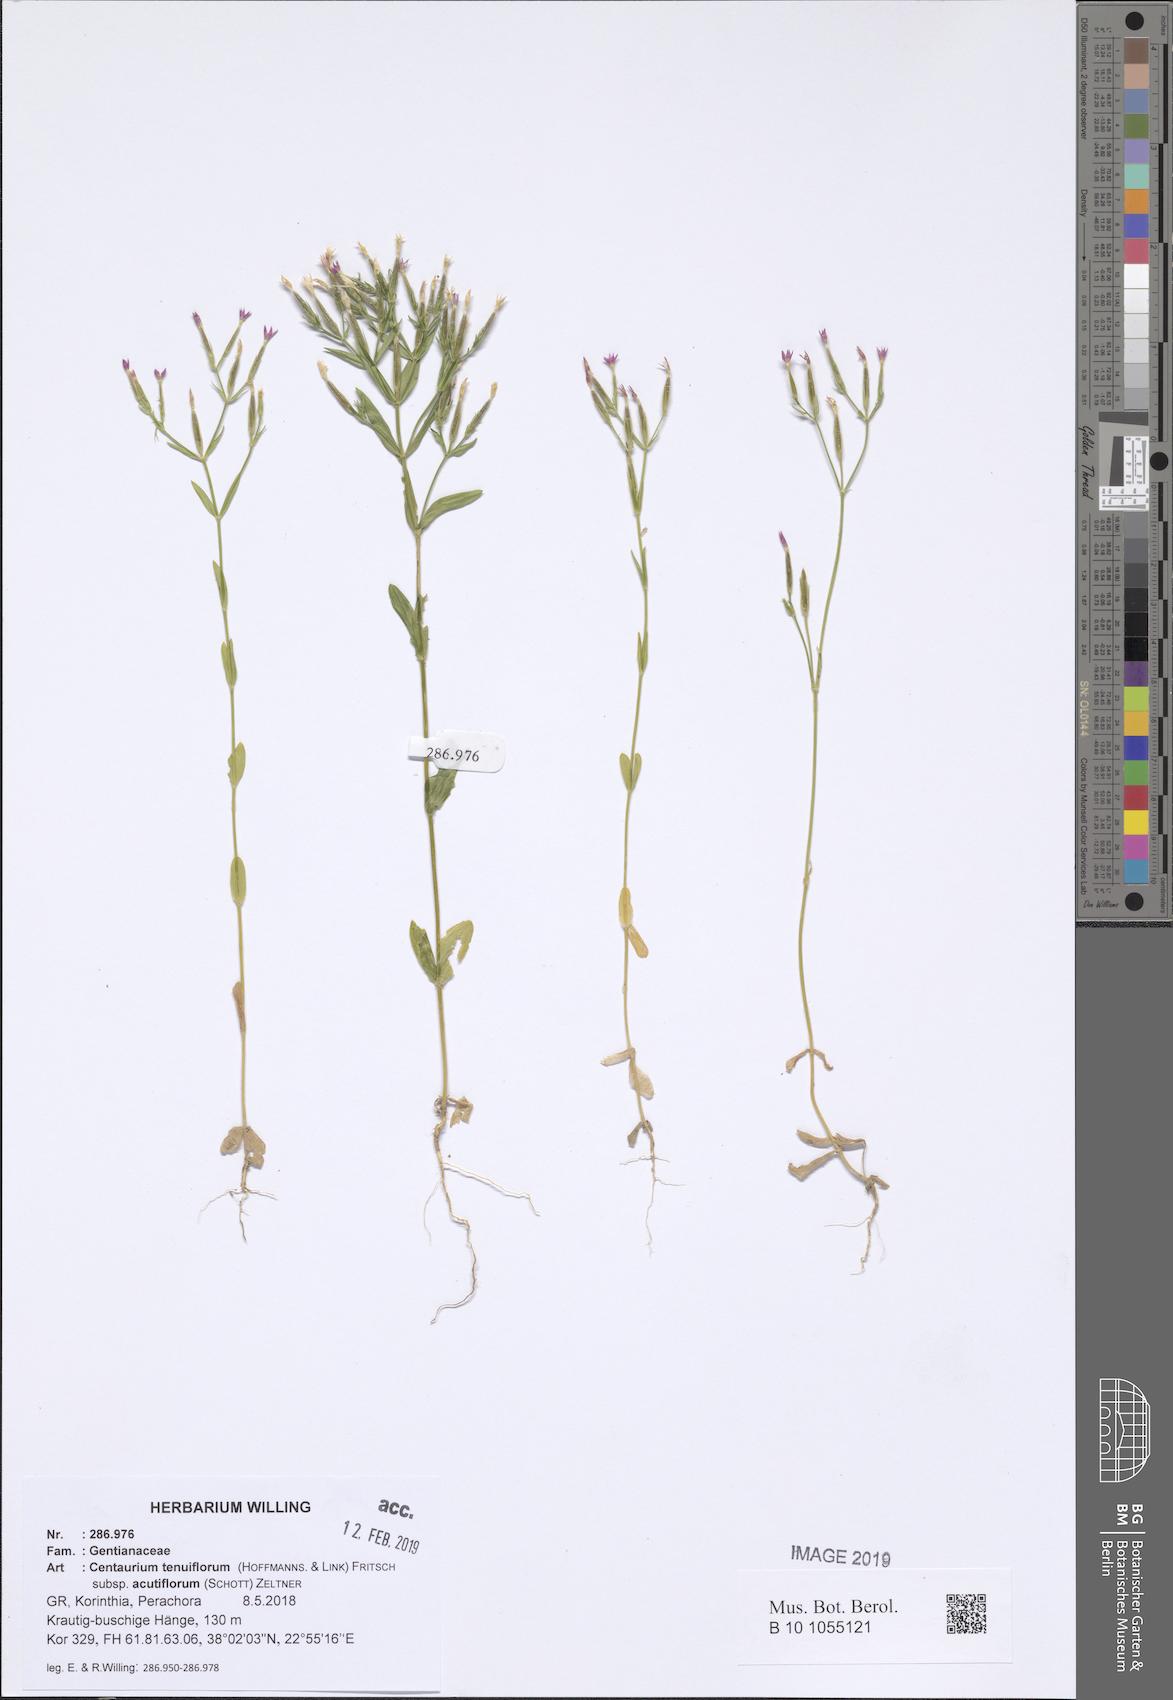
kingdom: Plantae
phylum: Tracheophyta
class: Magnoliopsida
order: Gentianales
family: Gentianaceae
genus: Centaurium
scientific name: Centaurium tenuiflorum
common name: Slender centaury
